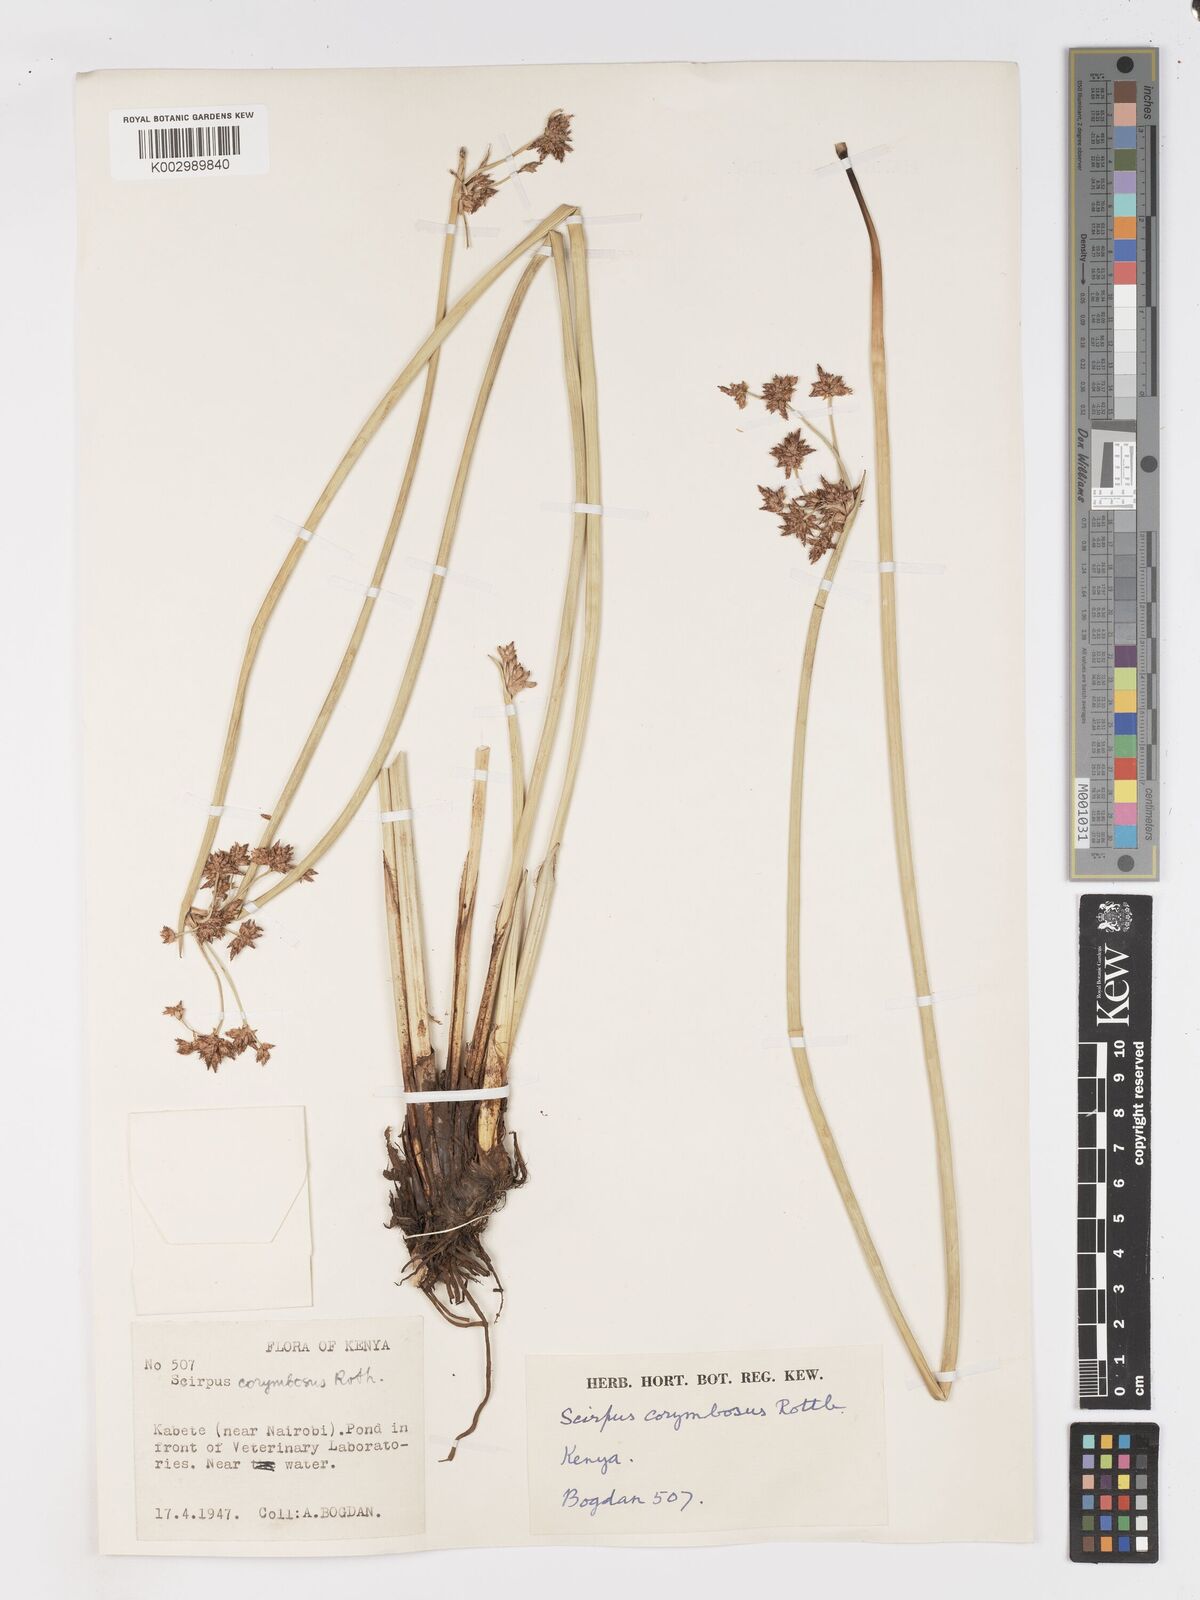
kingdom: Plantae
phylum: Tracheophyta
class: Liliopsida
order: Poales
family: Cyperaceae
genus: Schoenoplectiella
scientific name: Schoenoplectiella corymbosa
